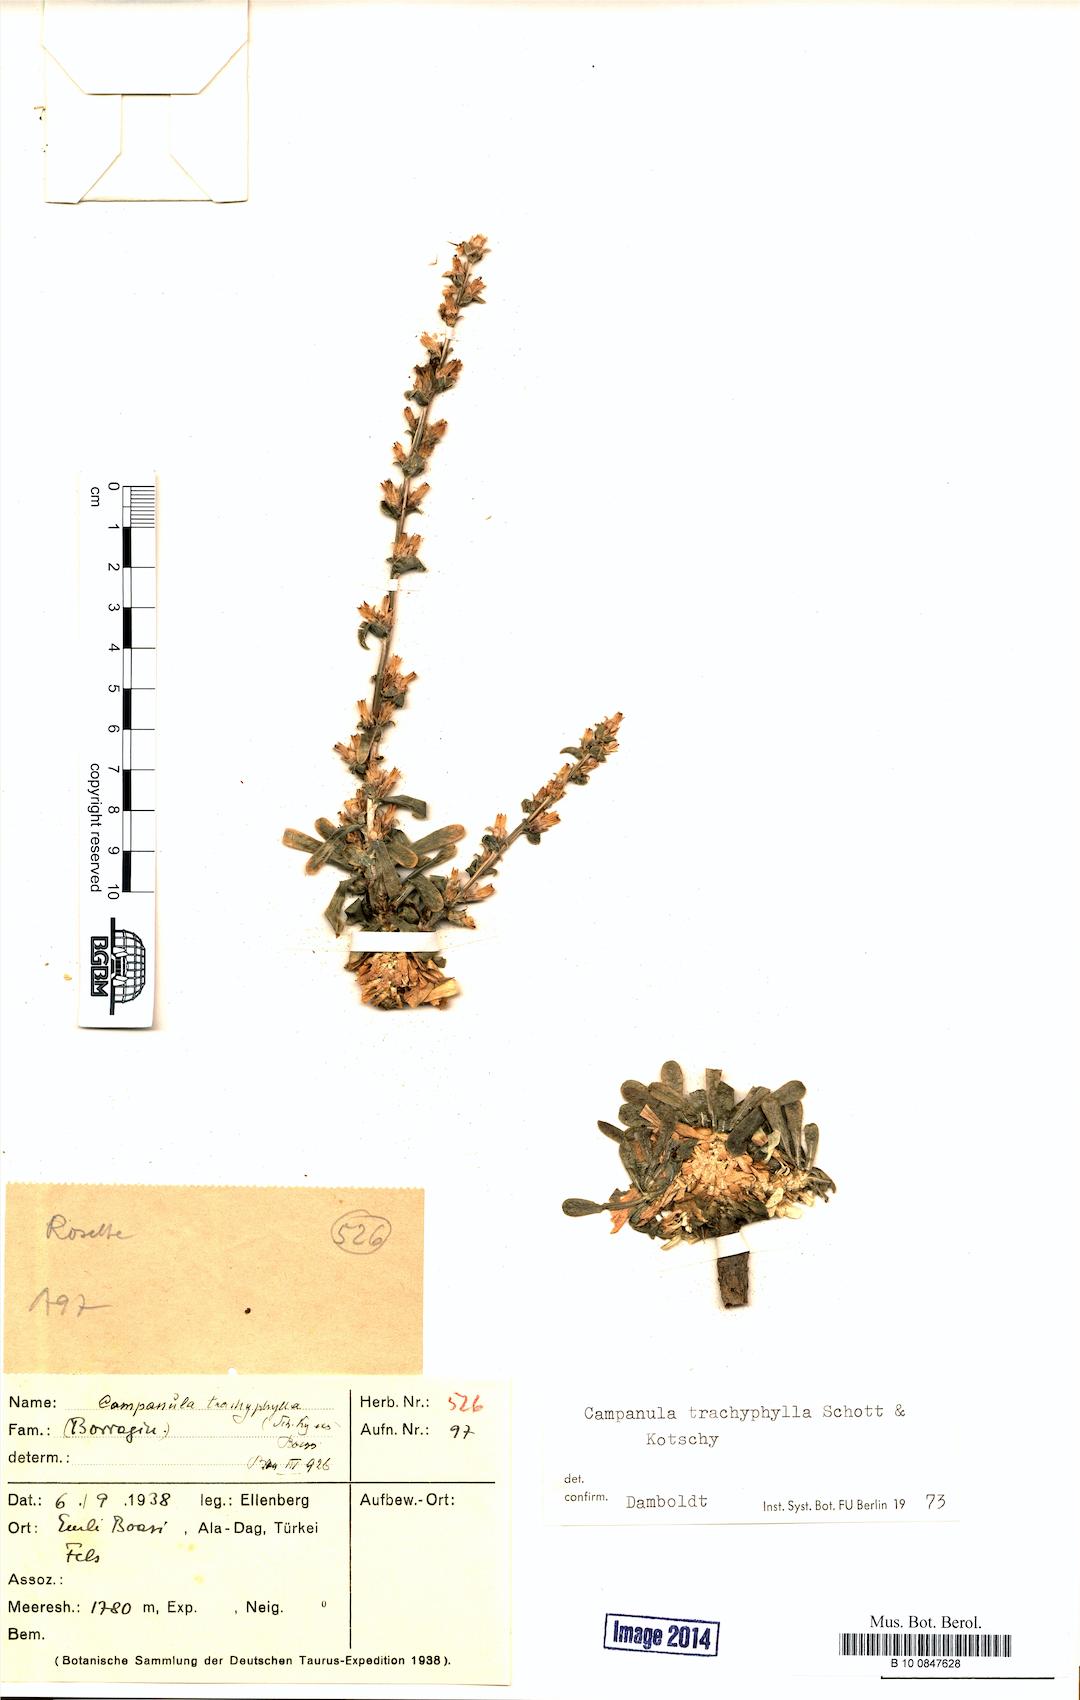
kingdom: Plantae
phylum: Tracheophyta
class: Magnoliopsida
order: Asterales
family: Campanulaceae
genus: Campanula
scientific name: Campanula trachyphylla
